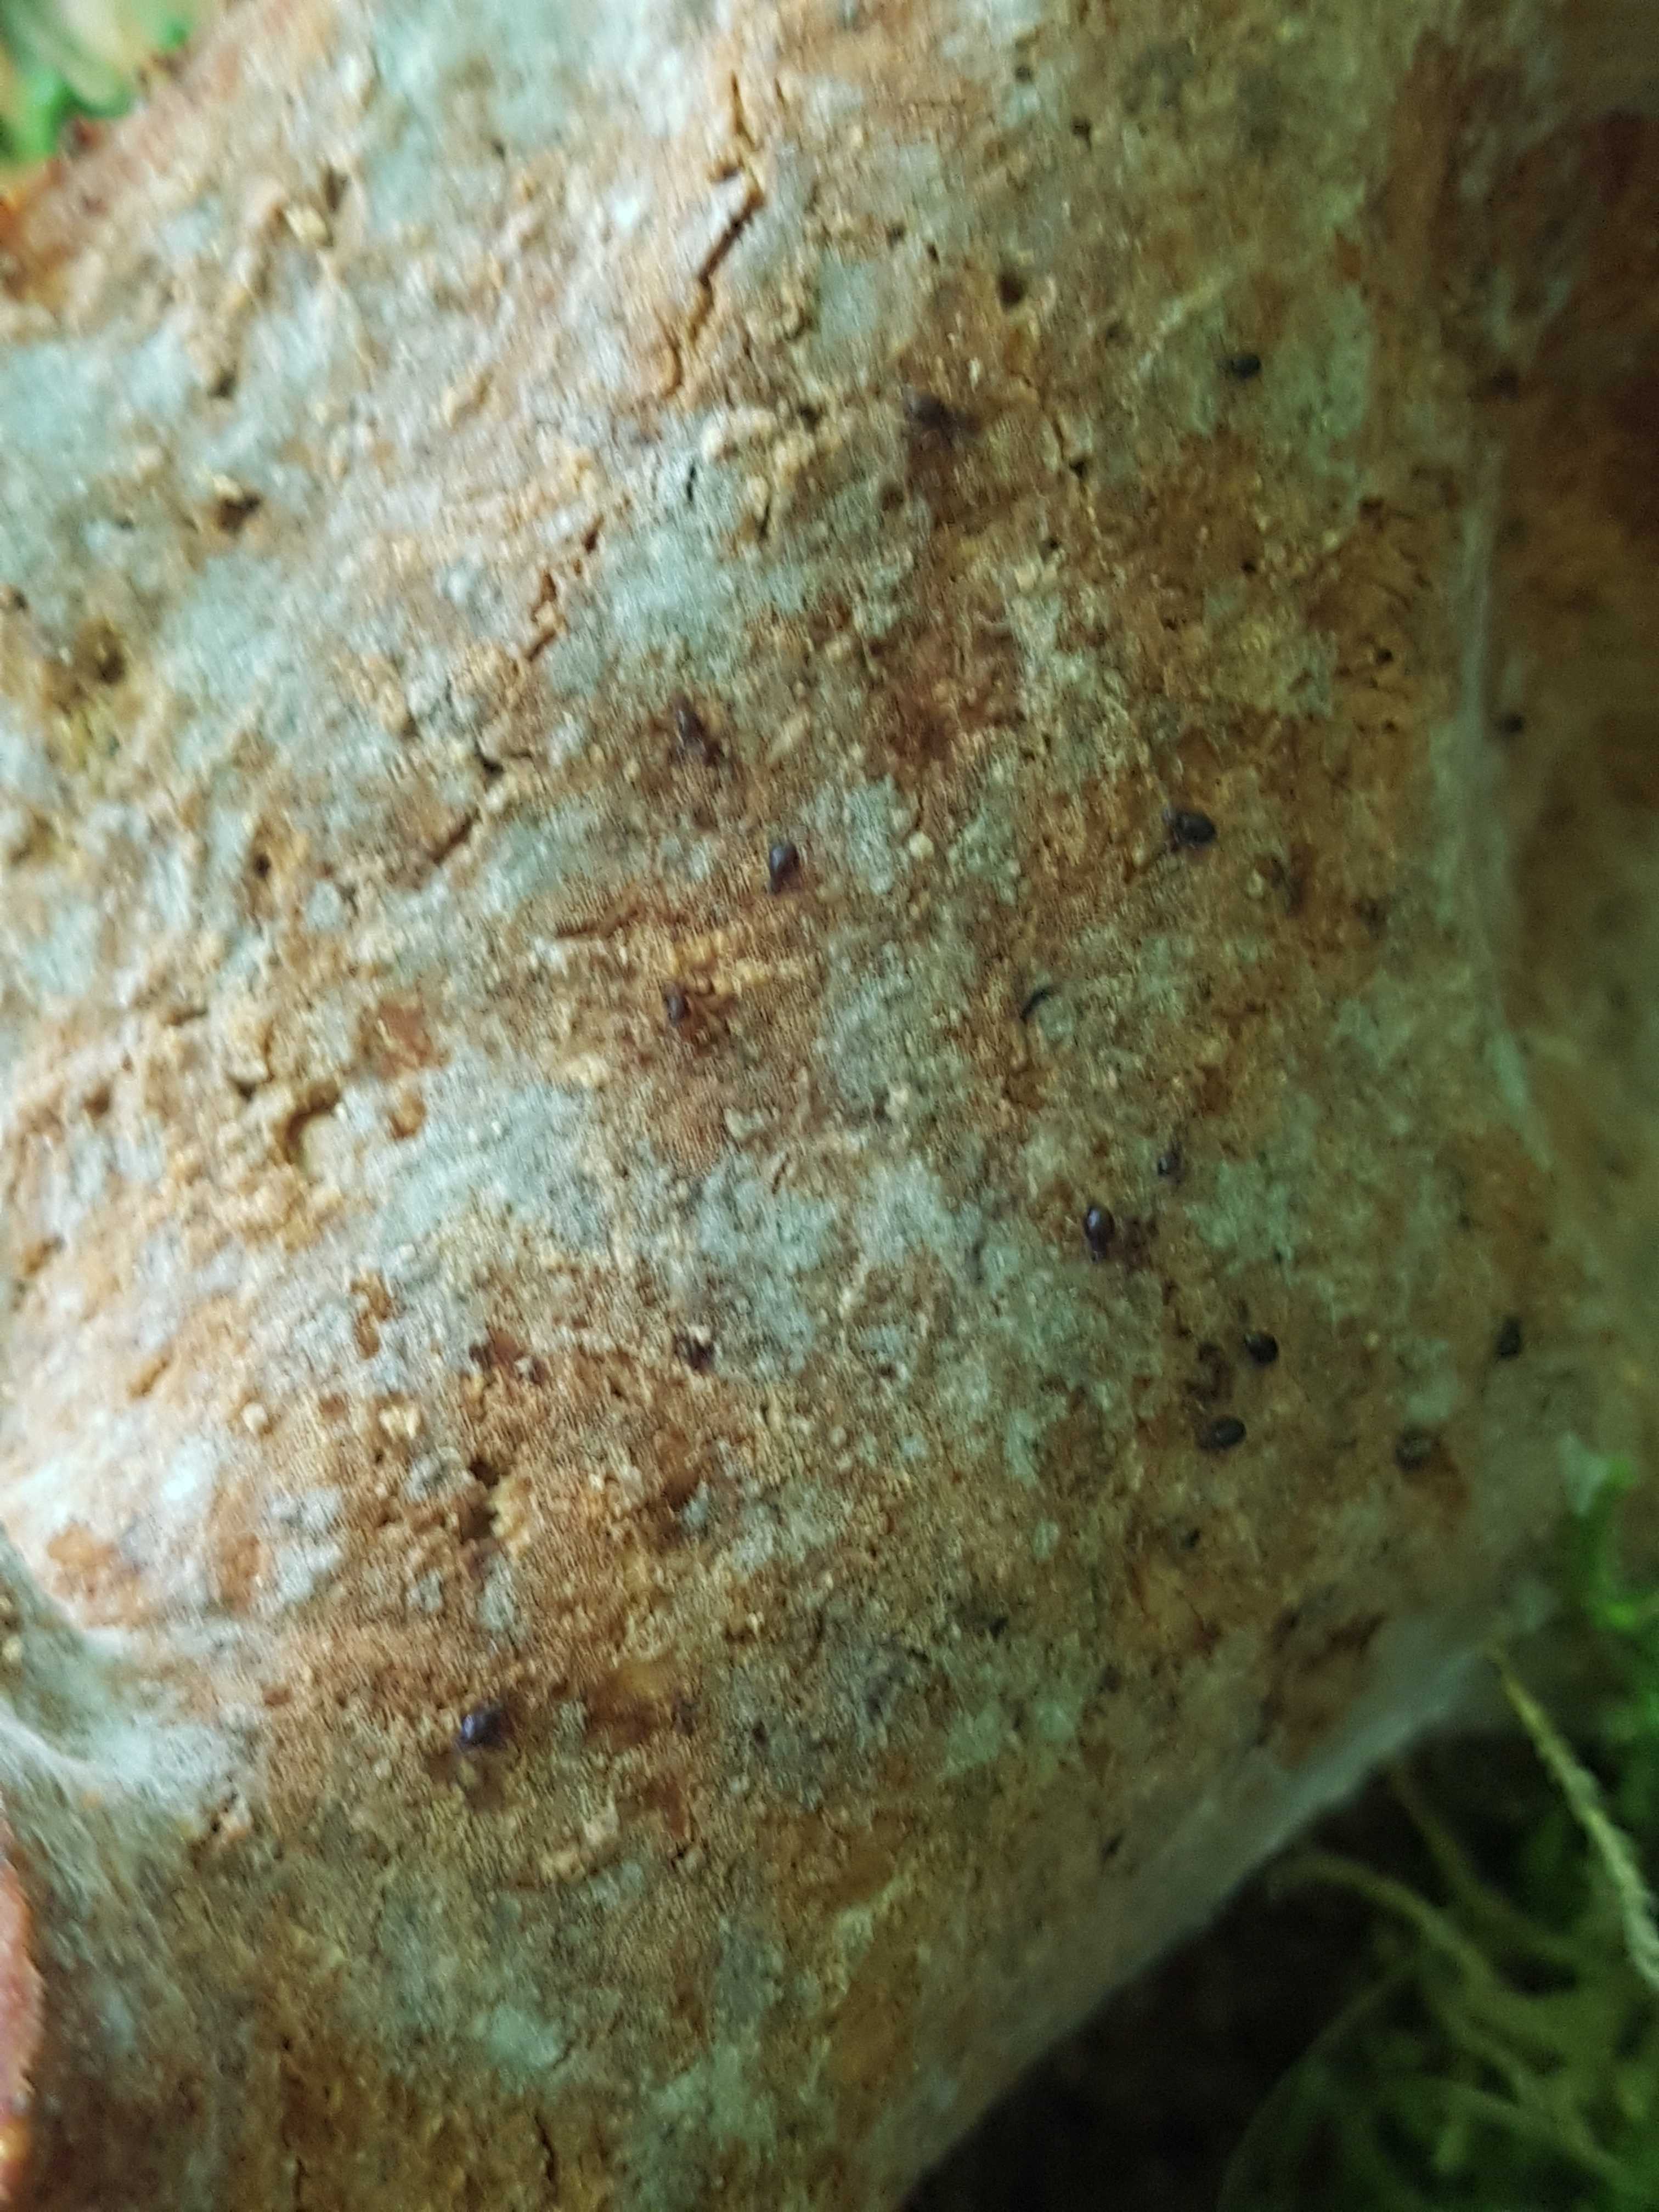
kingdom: Fungi
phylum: Basidiomycota
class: Agaricomycetes
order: Polyporales
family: Polyporaceae
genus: Picipes
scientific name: Picipes badius
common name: kastaniebrun stilkporesvamp
